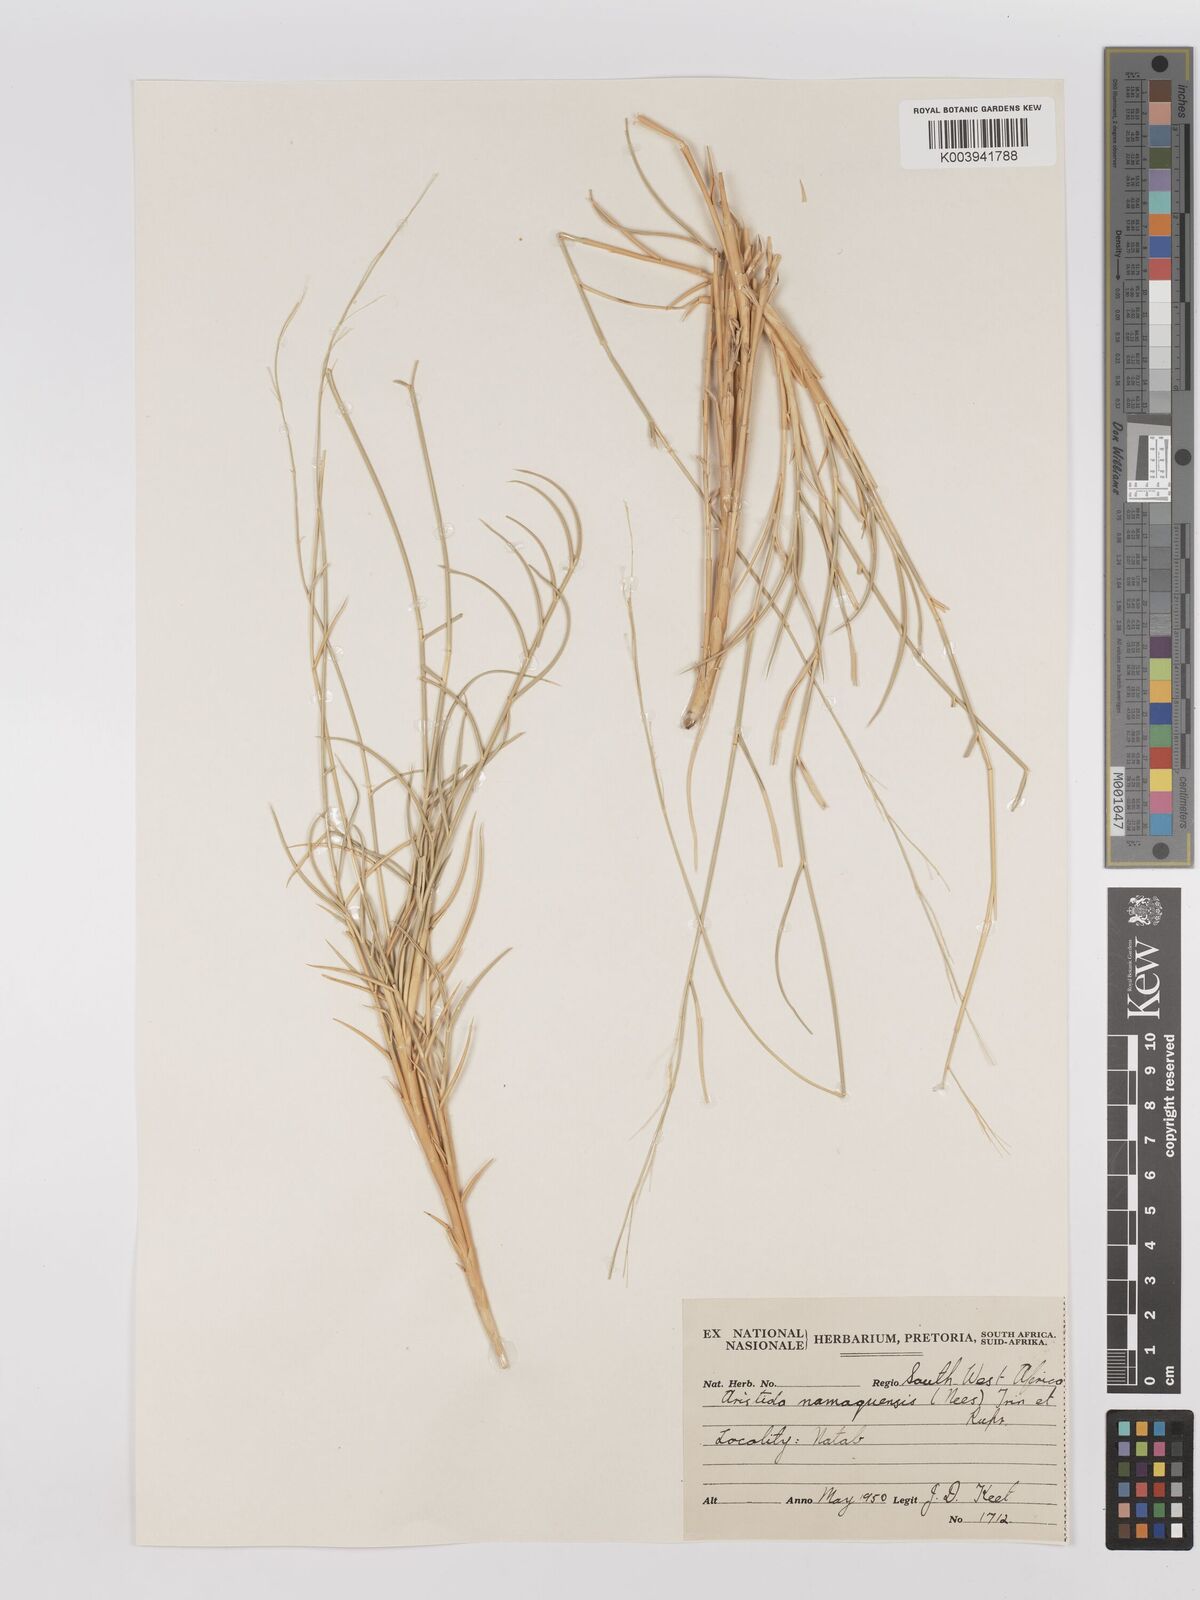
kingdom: Plantae
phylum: Tracheophyta
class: Liliopsida
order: Poales
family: Poaceae
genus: Stipagrostis
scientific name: Stipagrostis namaquensis
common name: River bushman grass
